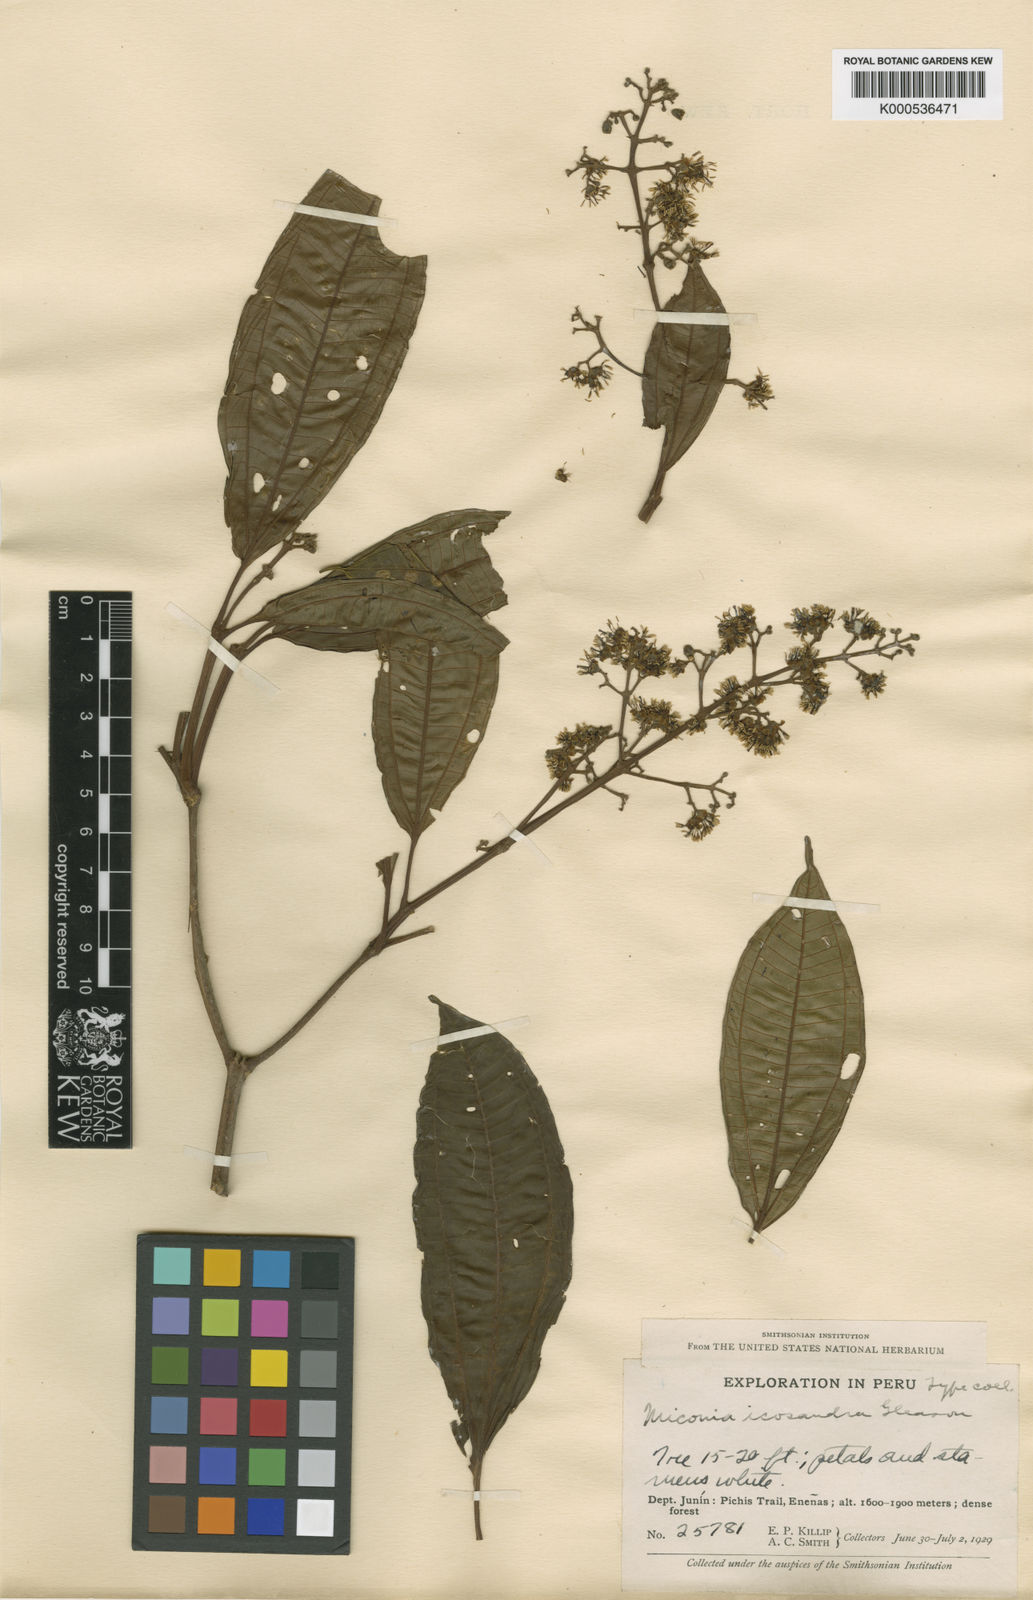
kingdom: Plantae
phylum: Tracheophyta
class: Magnoliopsida
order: Myrtales
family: Melastomataceae
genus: Miconia
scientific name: Miconia icosandra
